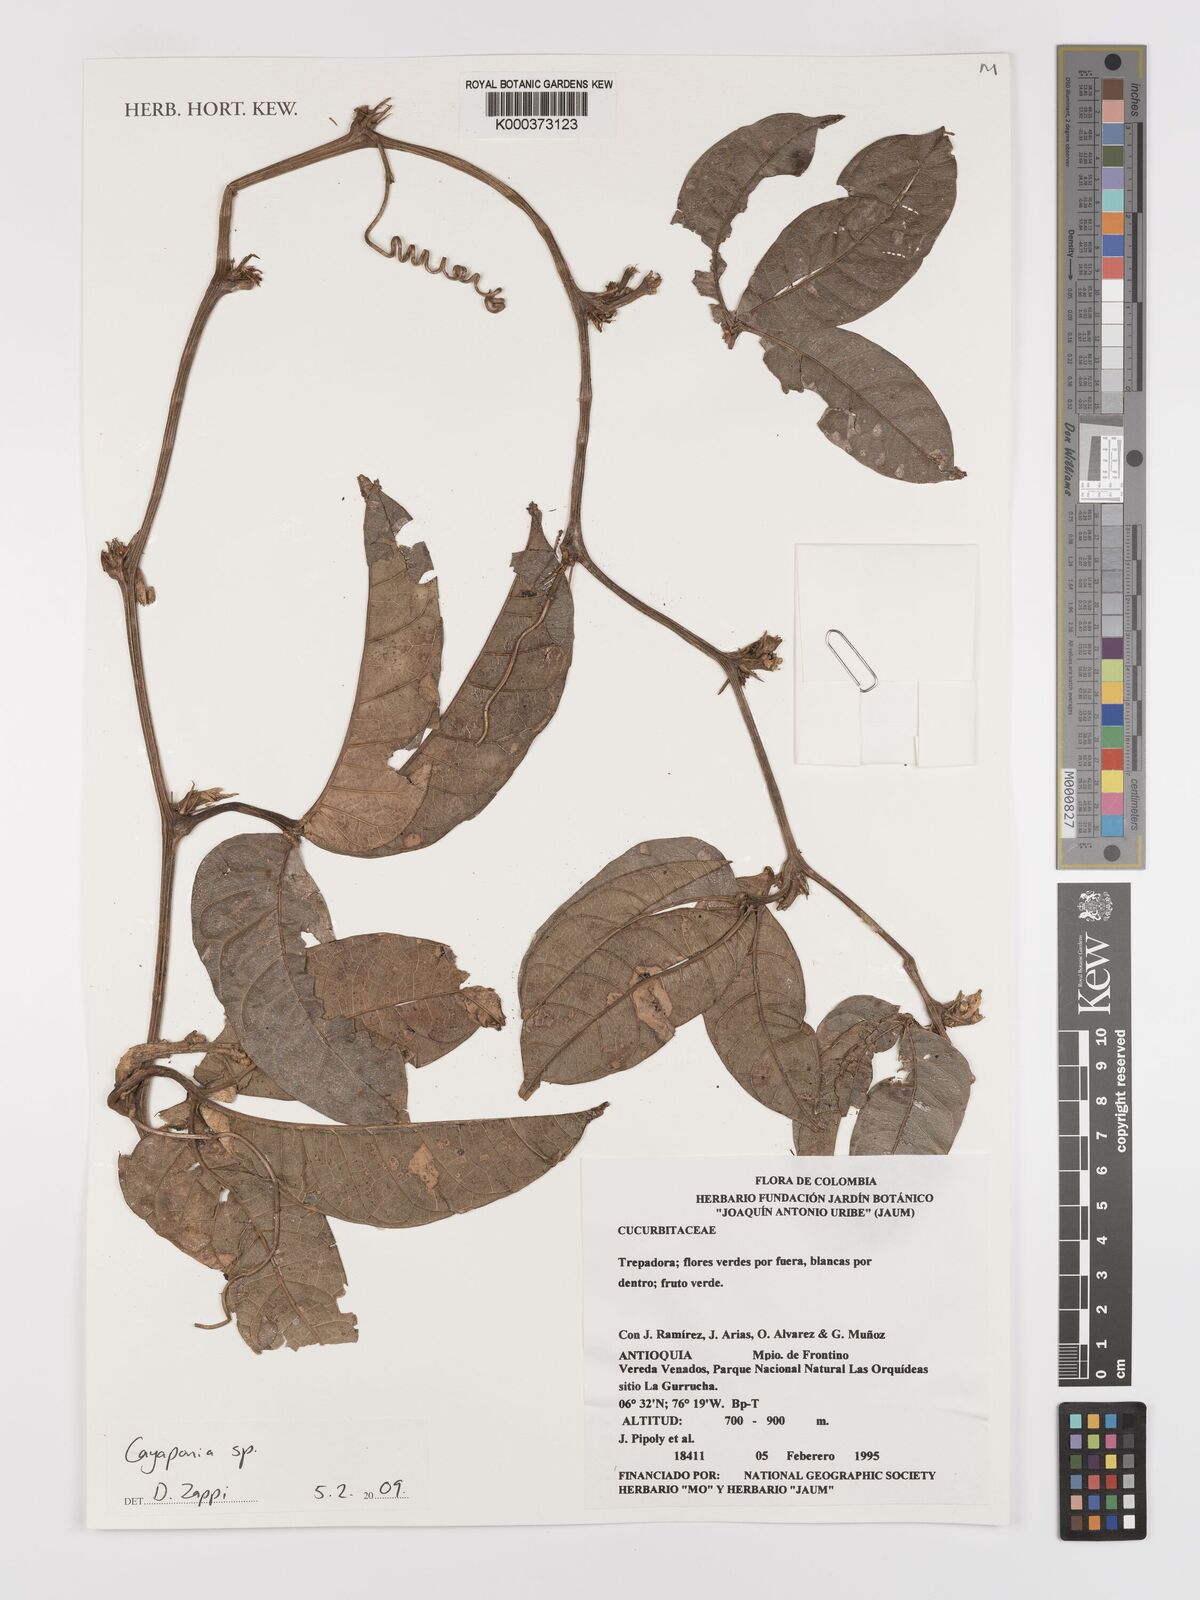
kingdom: Plantae
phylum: Tracheophyta
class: Magnoliopsida
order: Cucurbitales
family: Cucurbitaceae
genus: Cayaponia
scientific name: Cayaponia
